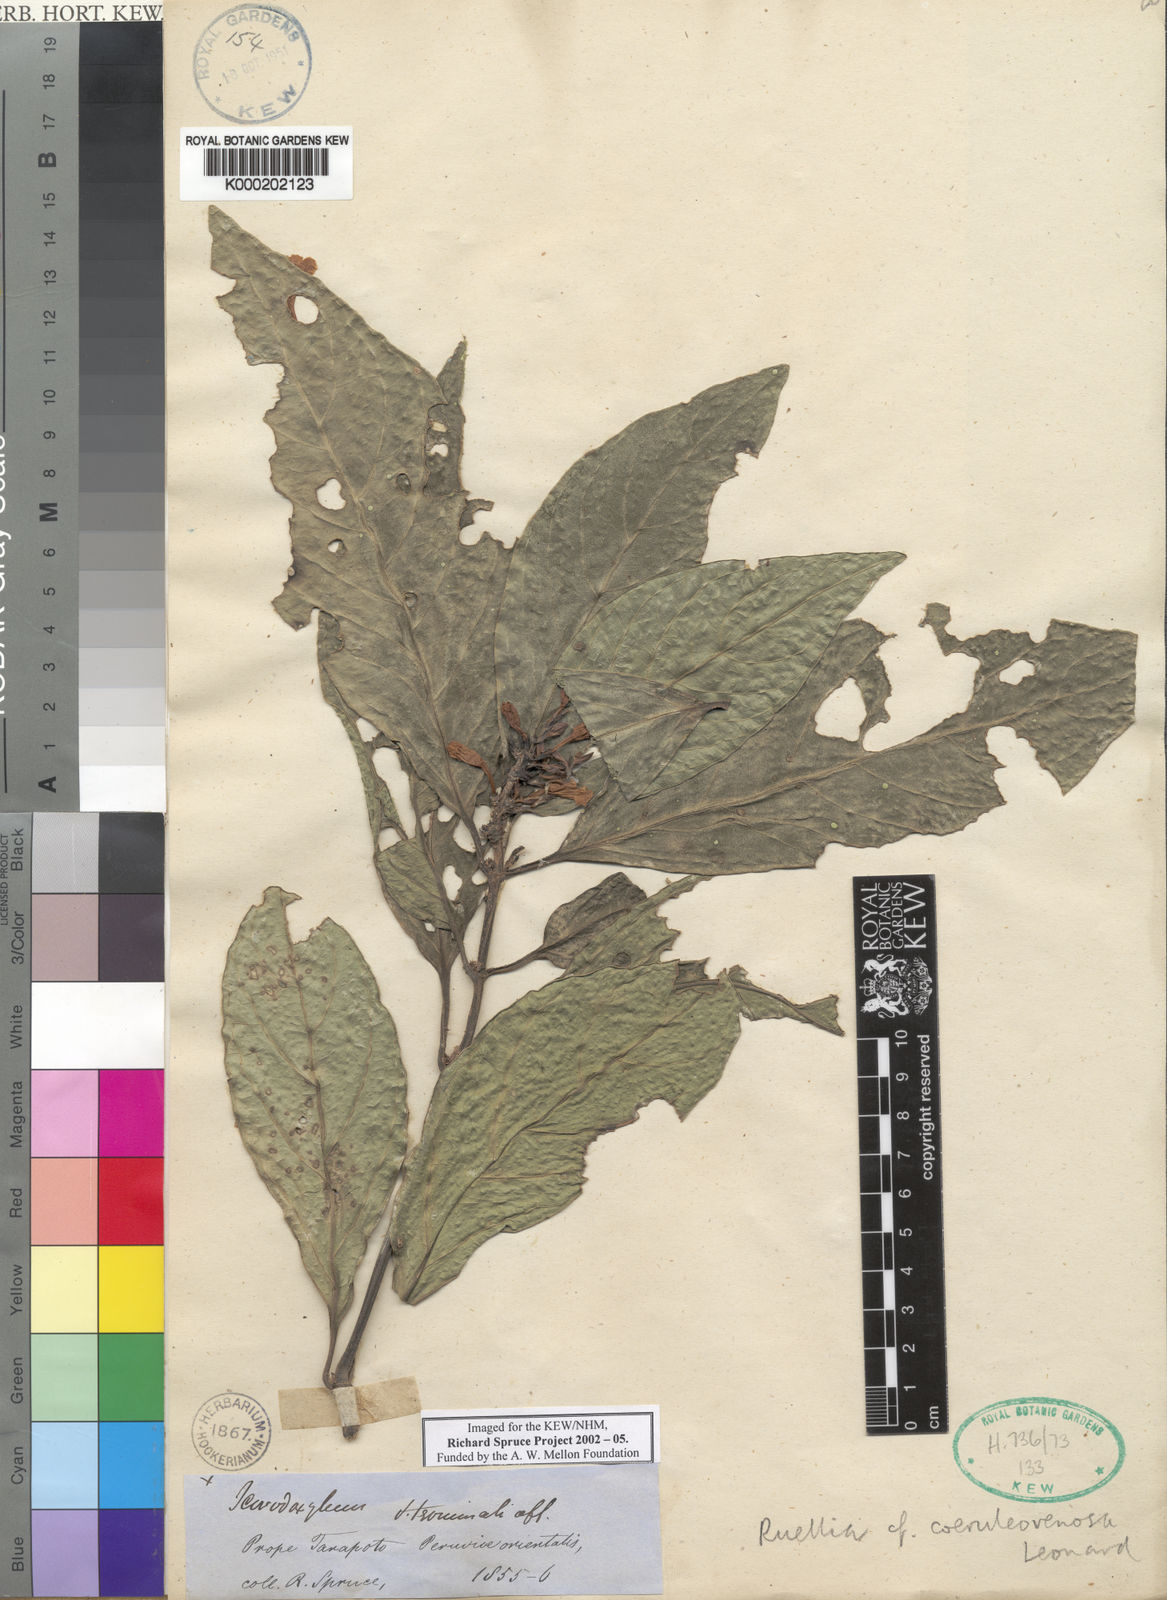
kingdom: Plantae
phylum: Tracheophyta
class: Magnoliopsida
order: Lamiales
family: Acanthaceae
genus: Ruellia
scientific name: Ruellia
